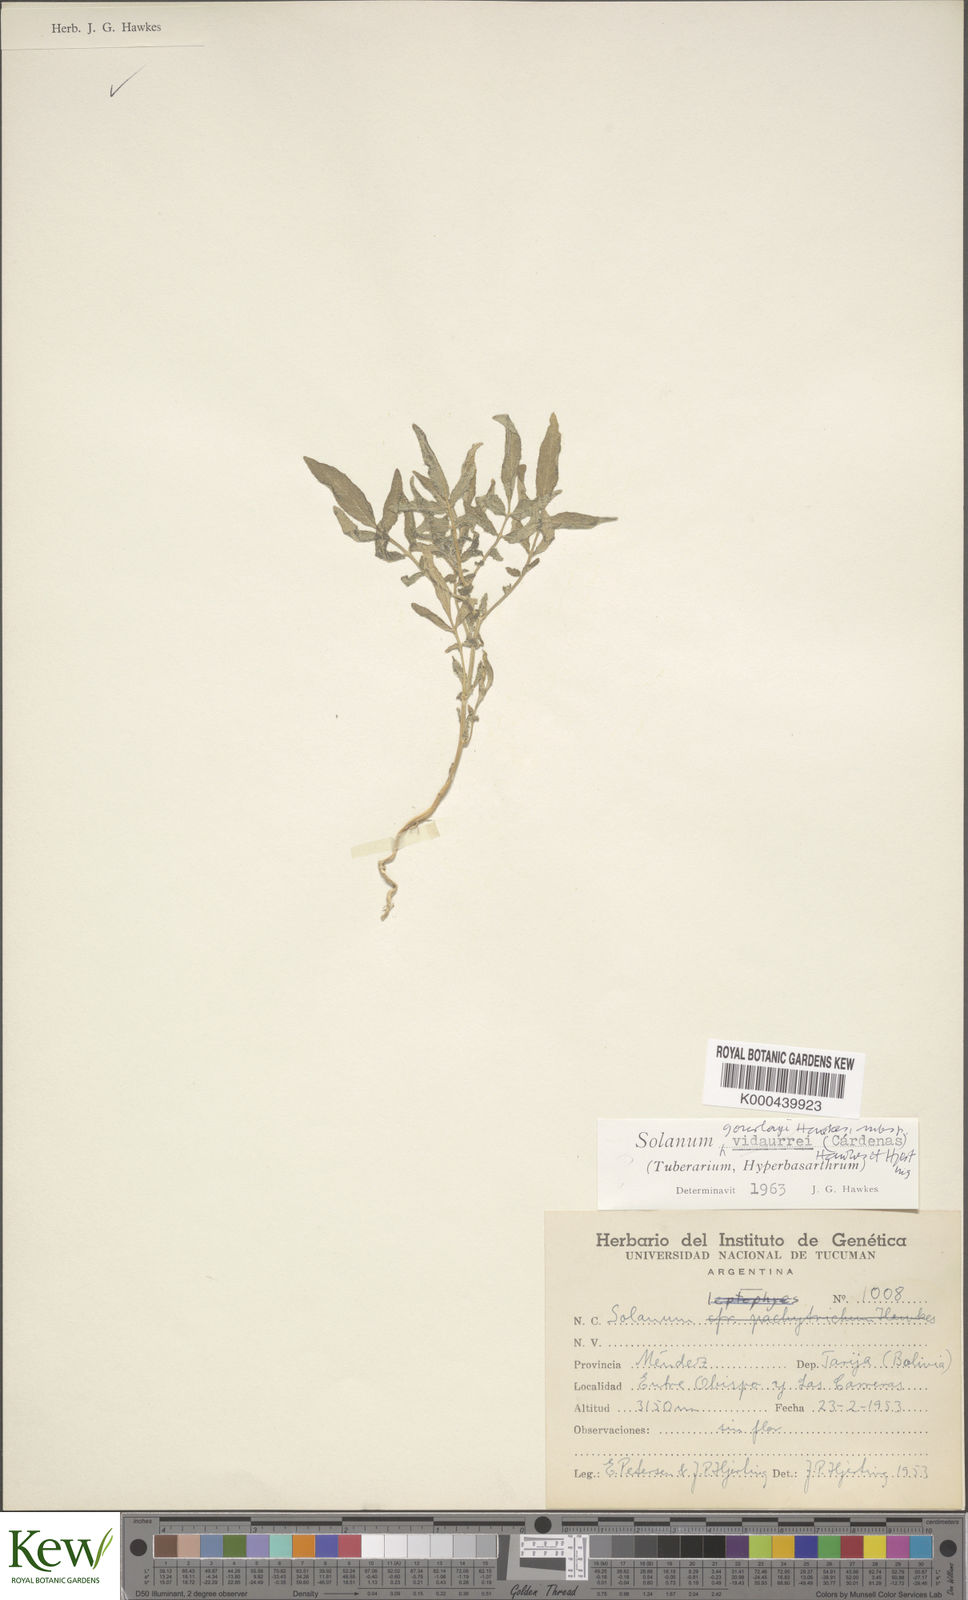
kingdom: Plantae
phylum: Tracheophyta
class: Magnoliopsida
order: Solanales
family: Solanaceae
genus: Solanum
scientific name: Solanum brevicaule
